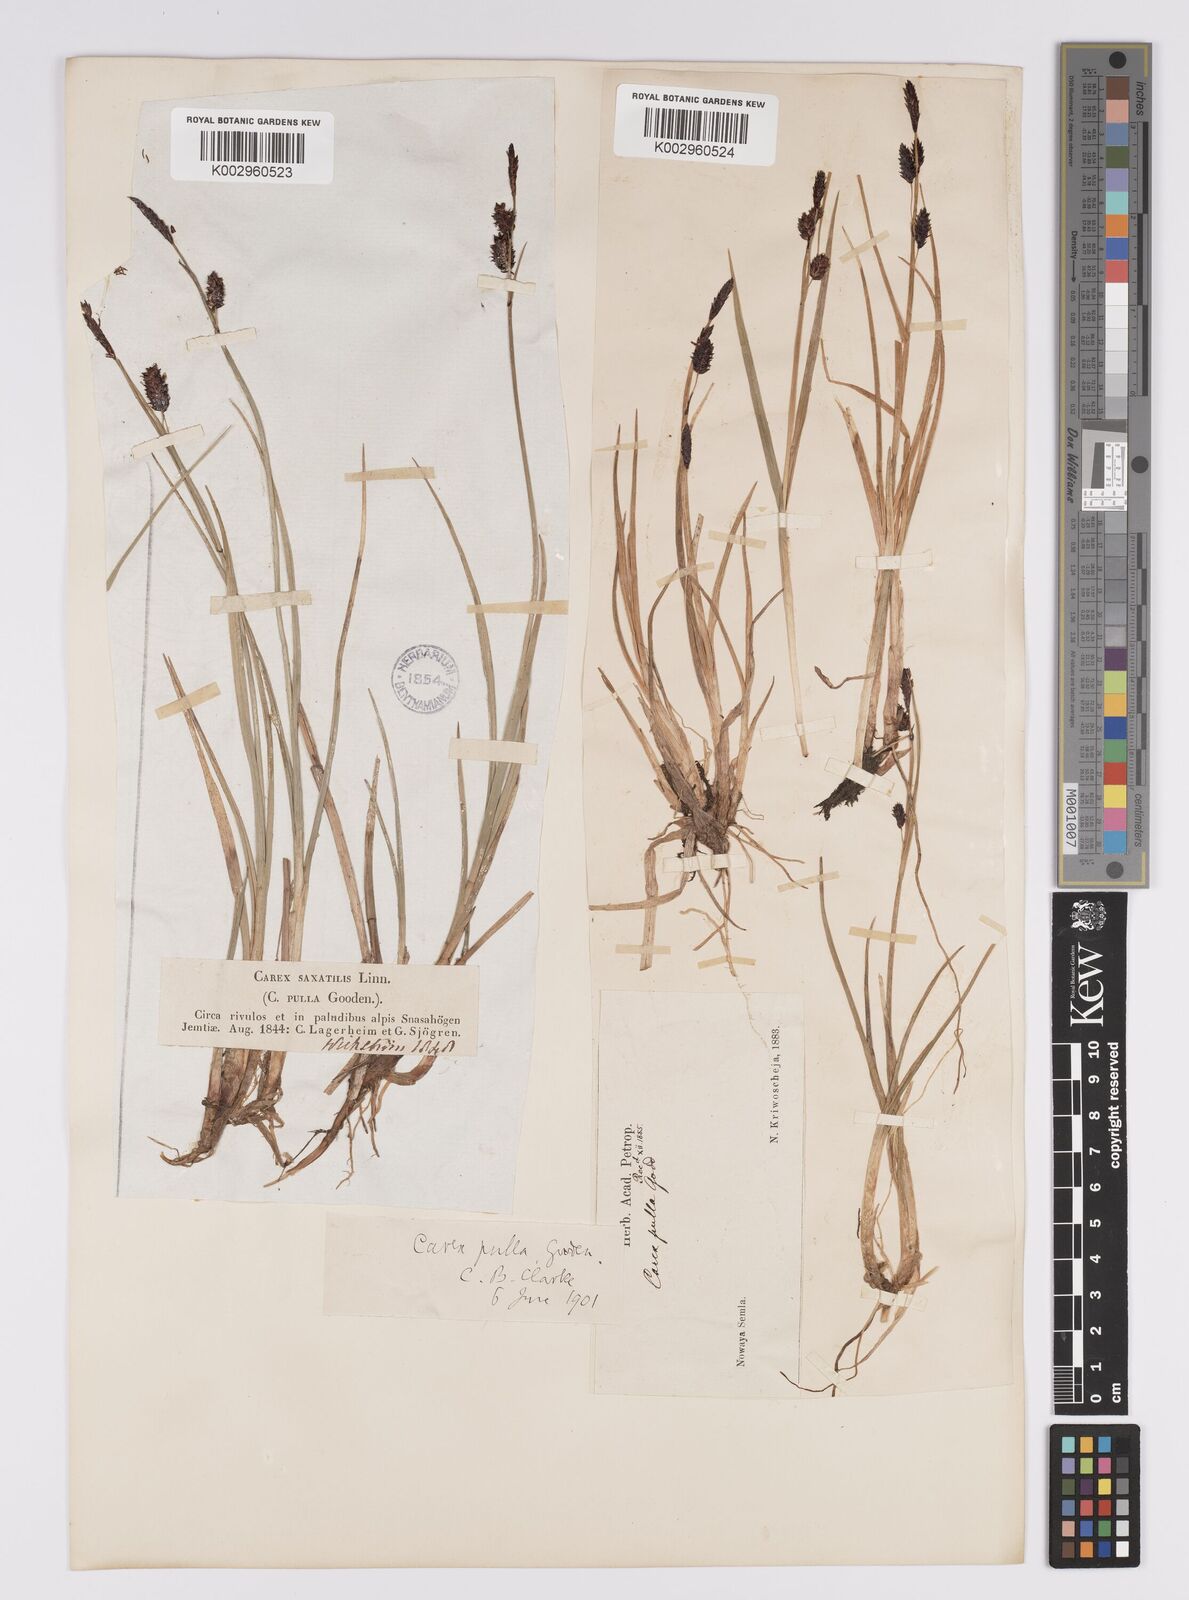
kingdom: Plantae
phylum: Tracheophyta
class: Liliopsida
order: Poales
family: Cyperaceae
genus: Carex
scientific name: Carex saxatilis
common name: Russet sedge
